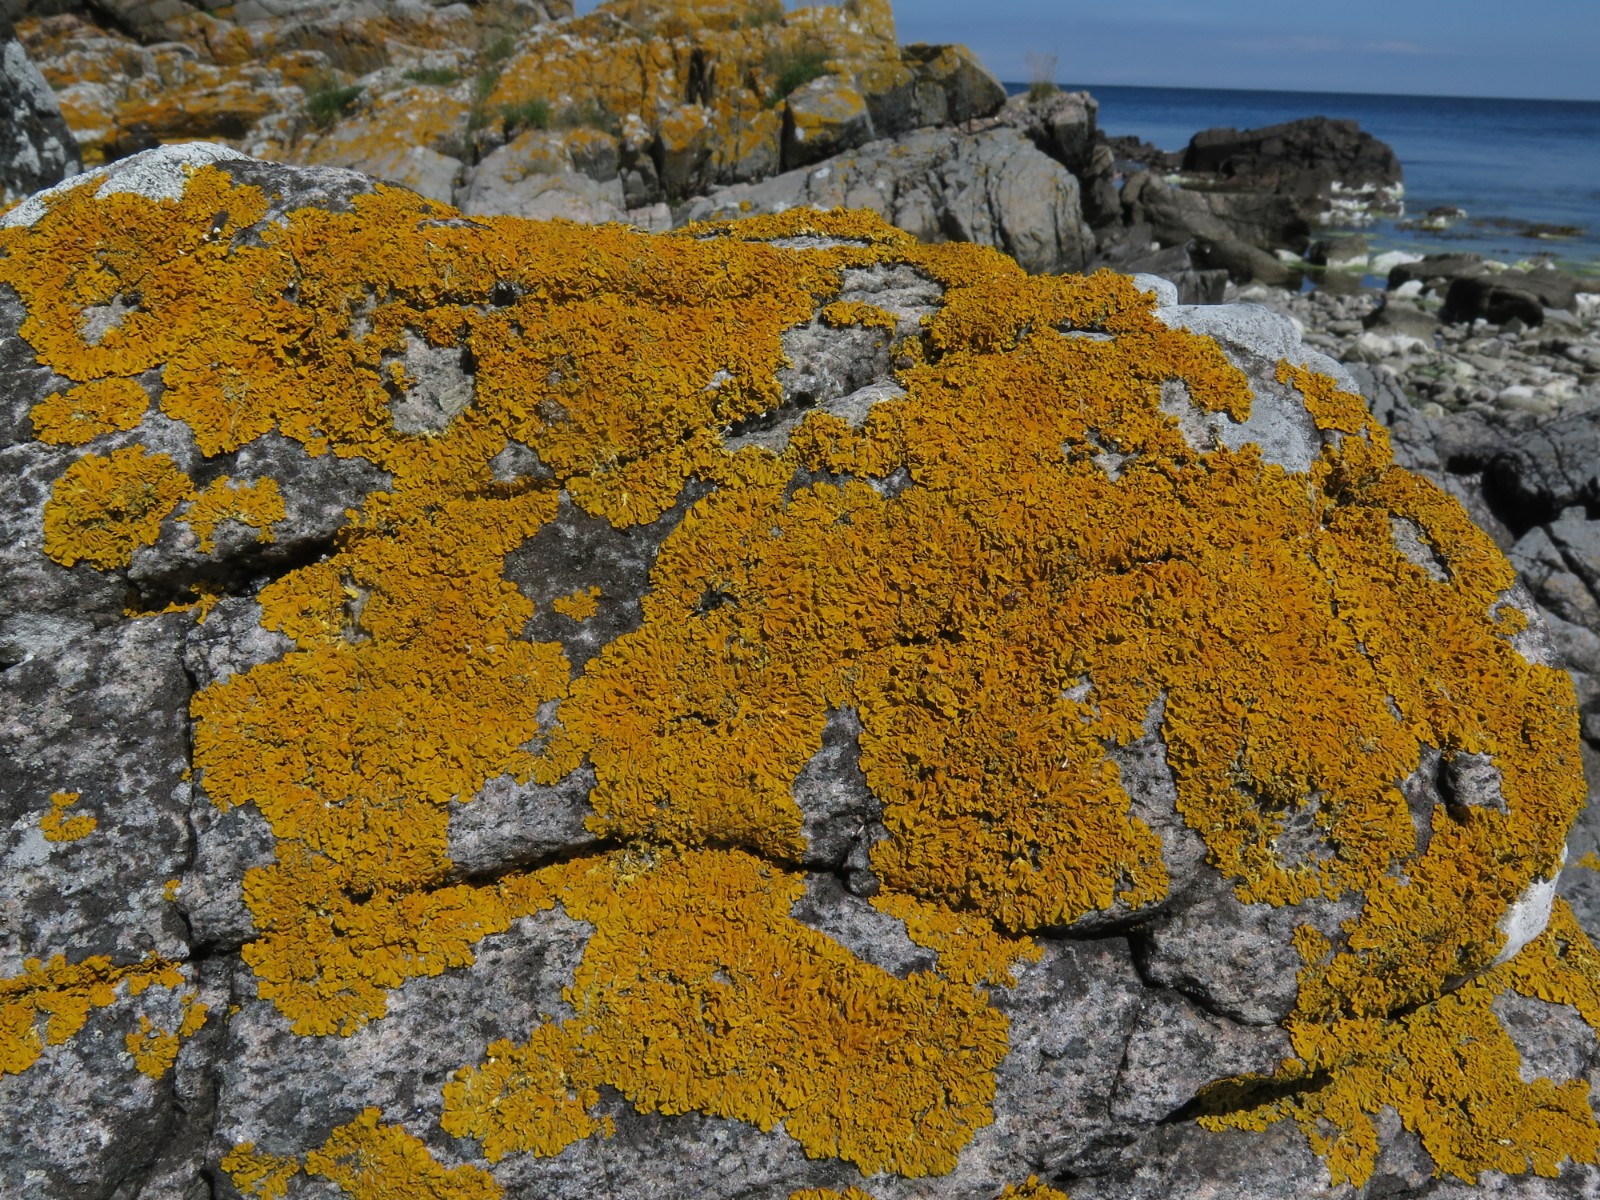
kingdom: Fungi
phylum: Ascomycota
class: Lecanoromycetes
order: Teloschistales
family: Teloschistaceae
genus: Xanthoria
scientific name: Xanthoria aureola
